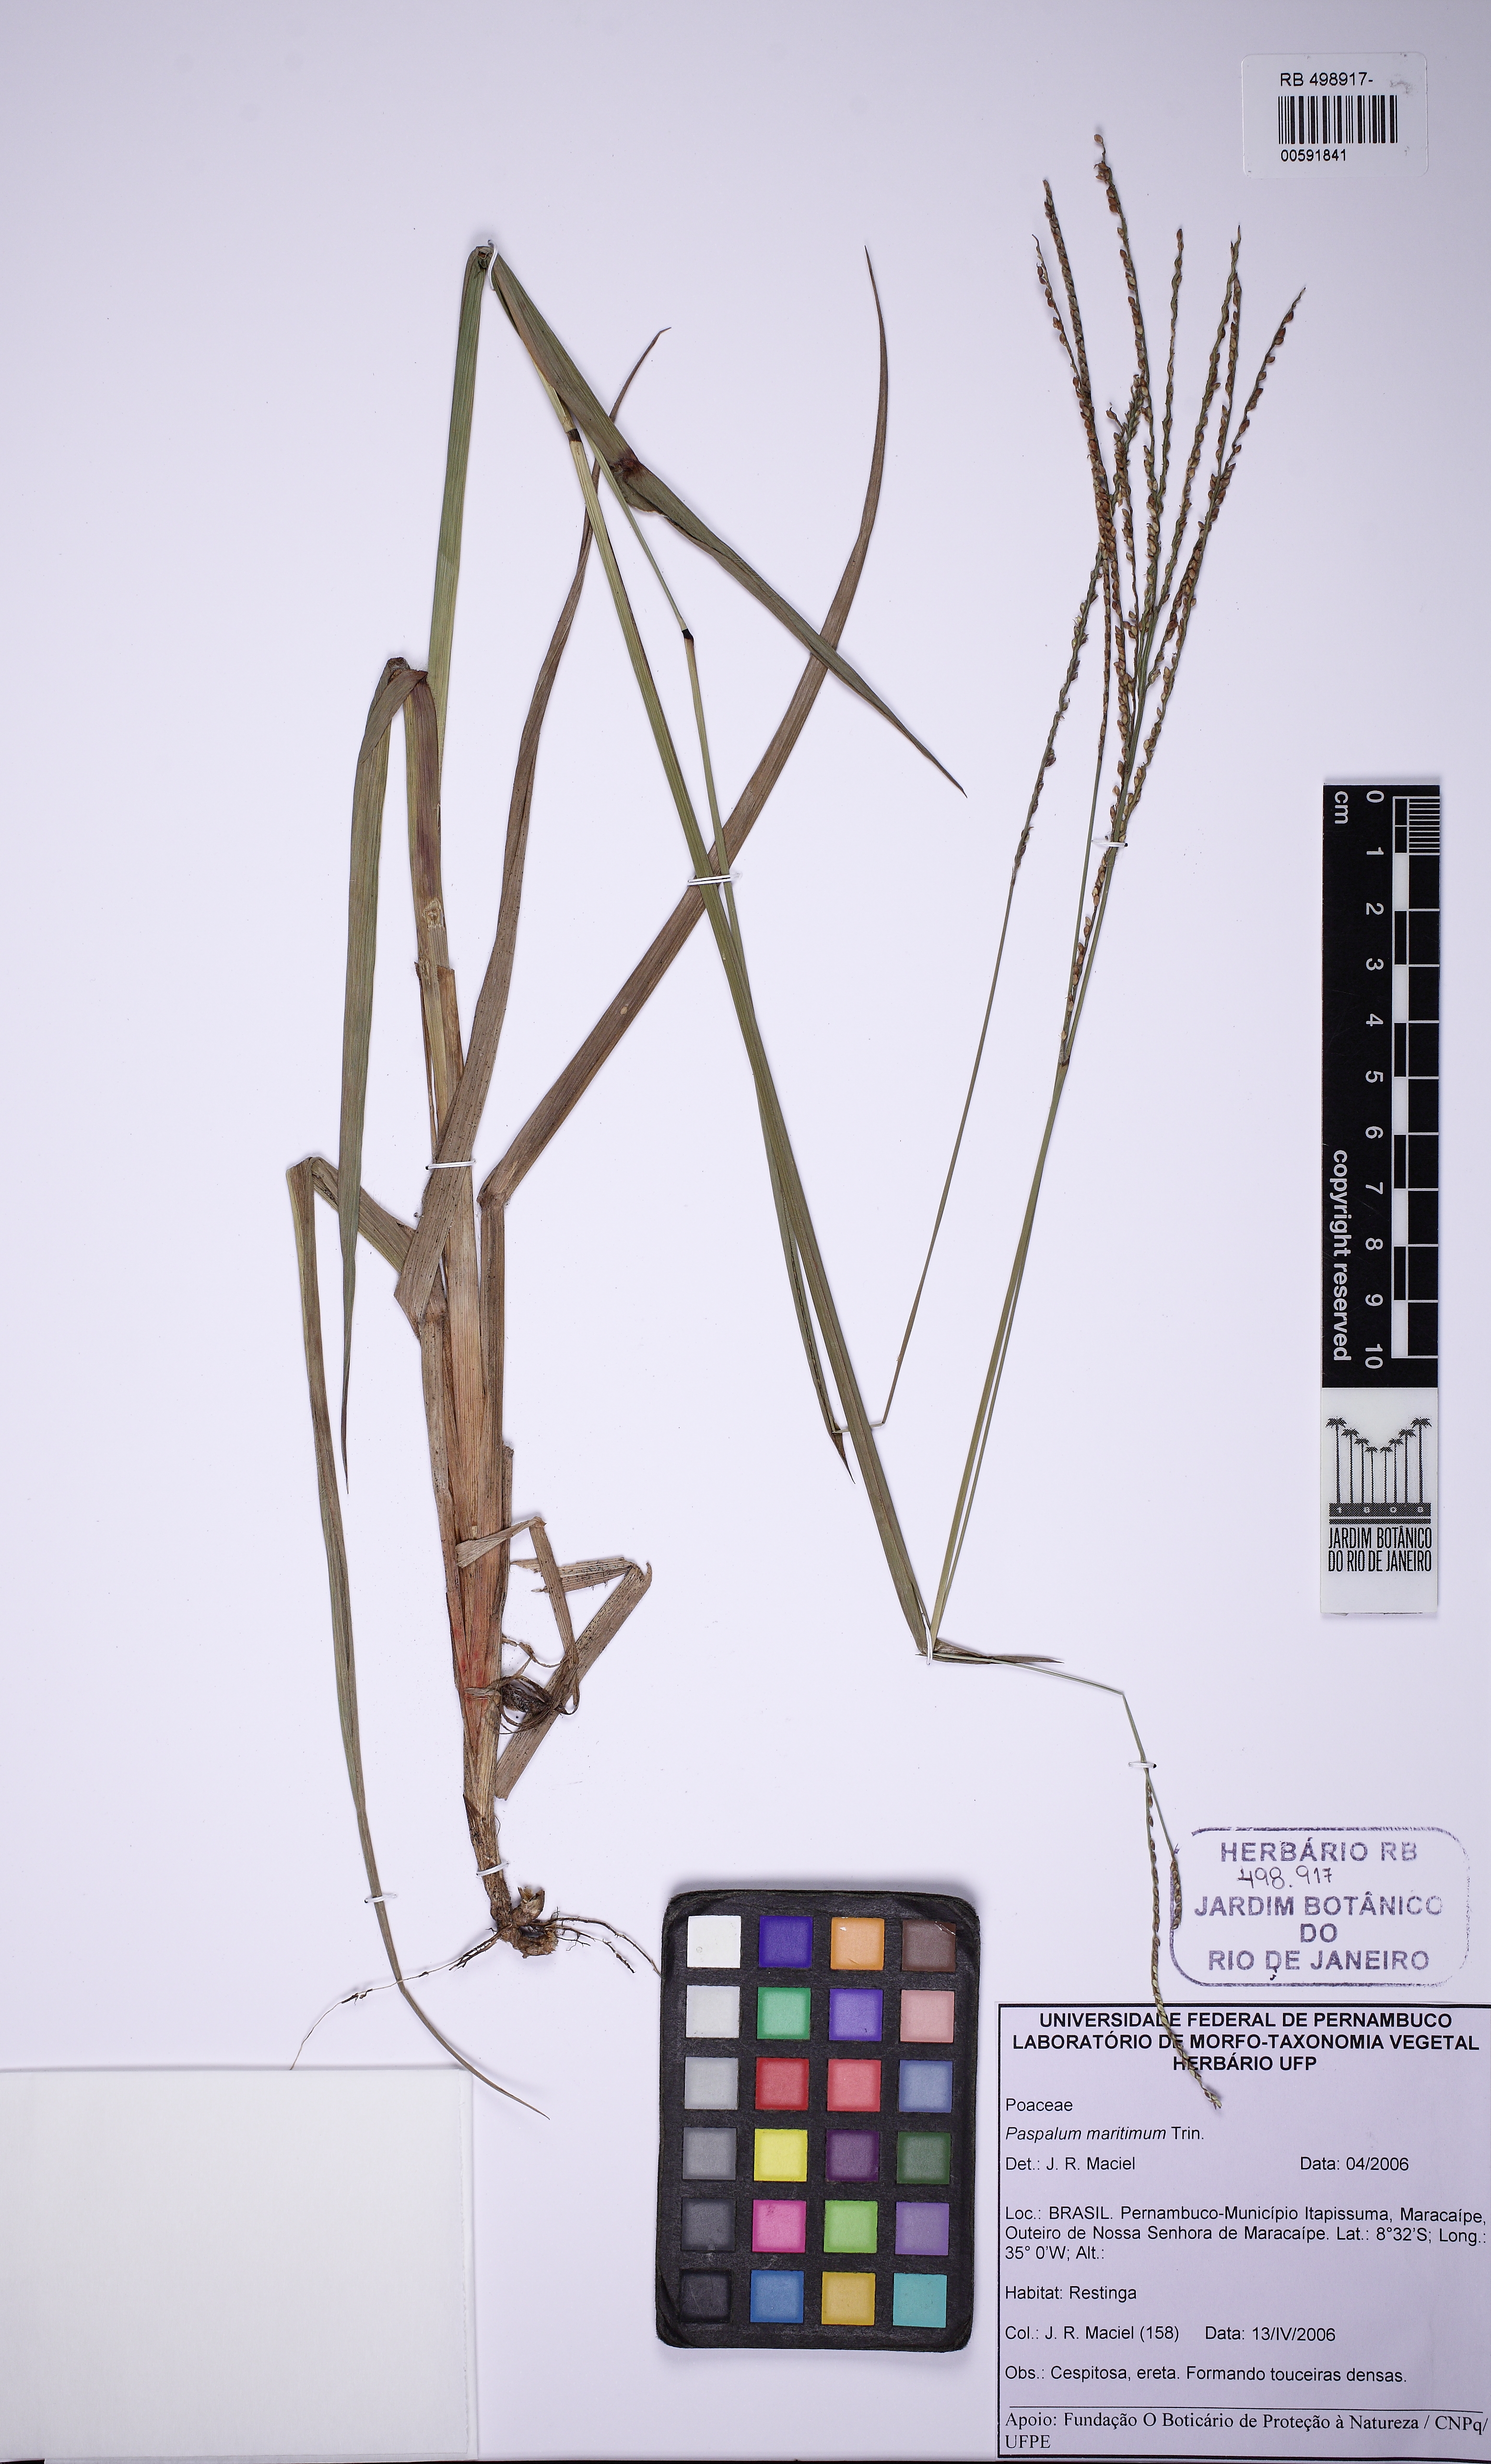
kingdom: Plantae
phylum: Tracheophyta
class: Liliopsida
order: Poales
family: Poaceae
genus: Paspalum
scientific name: Paspalum maritimum
